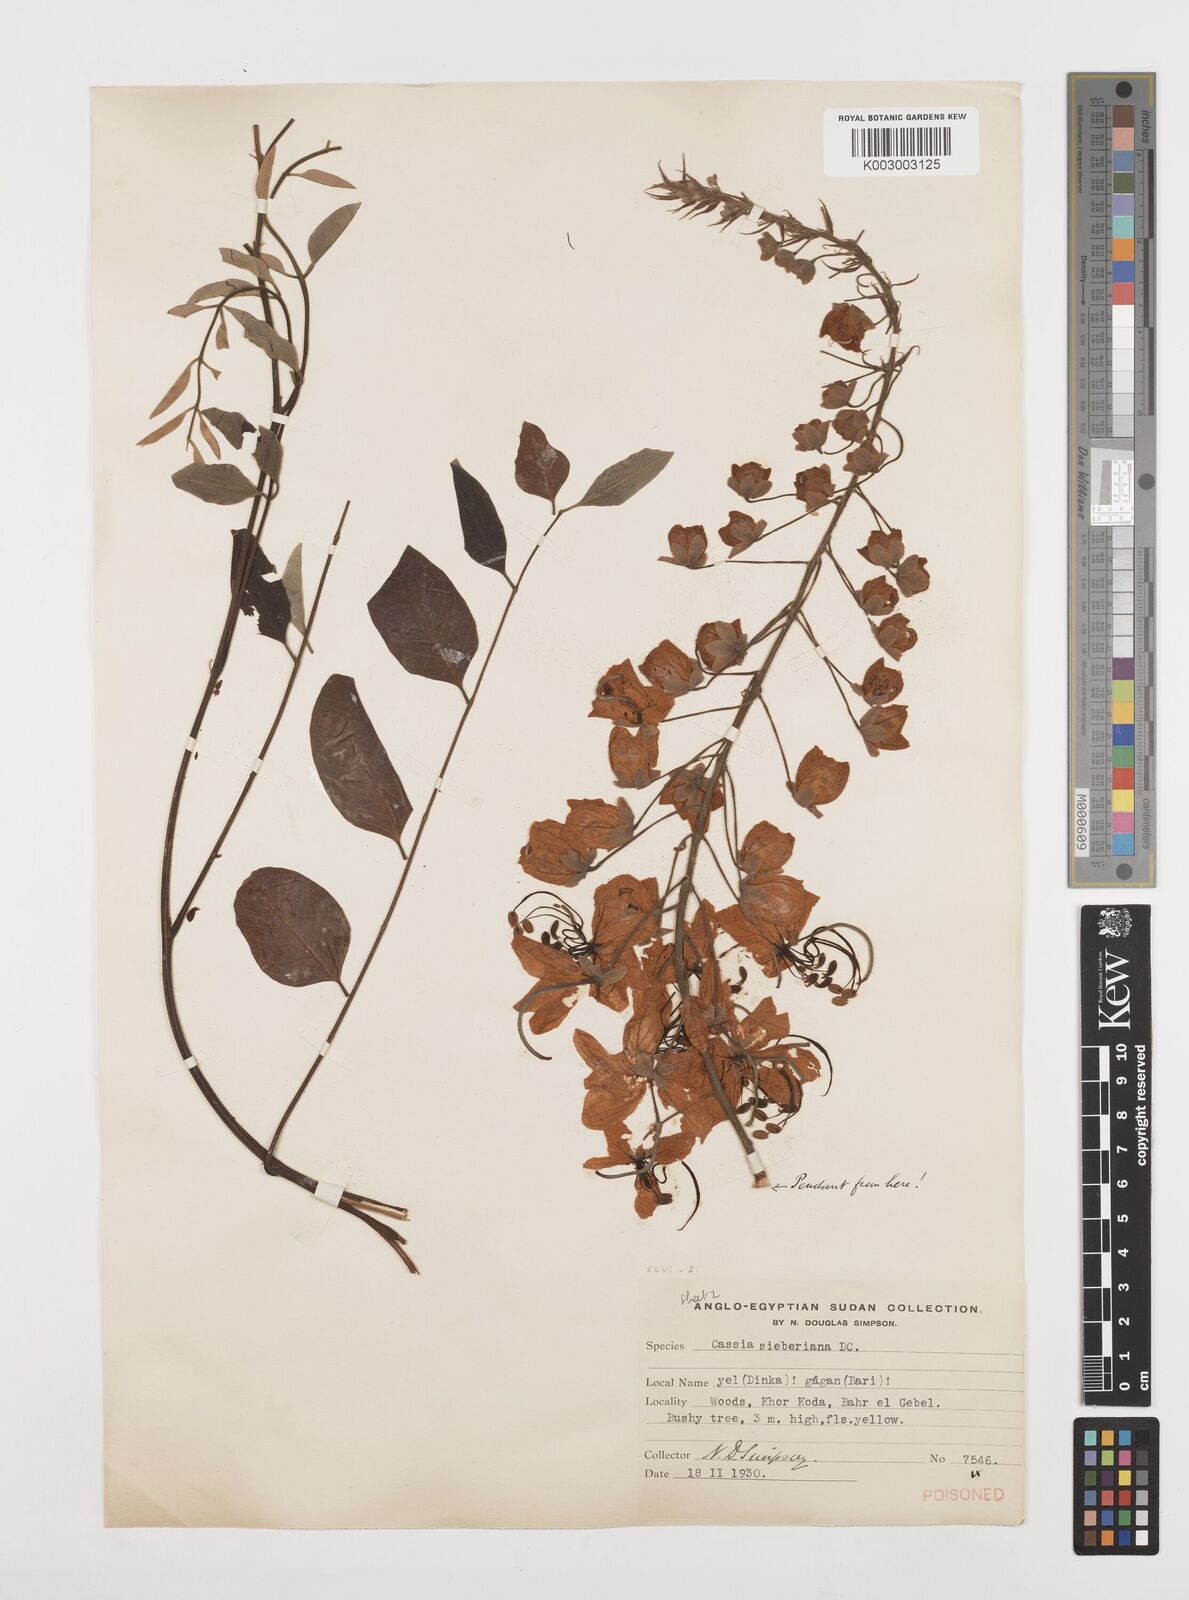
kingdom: Plantae
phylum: Tracheophyta
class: Magnoliopsida
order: Fabales
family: Fabaceae
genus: Cassia
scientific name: Cassia sieberiana
